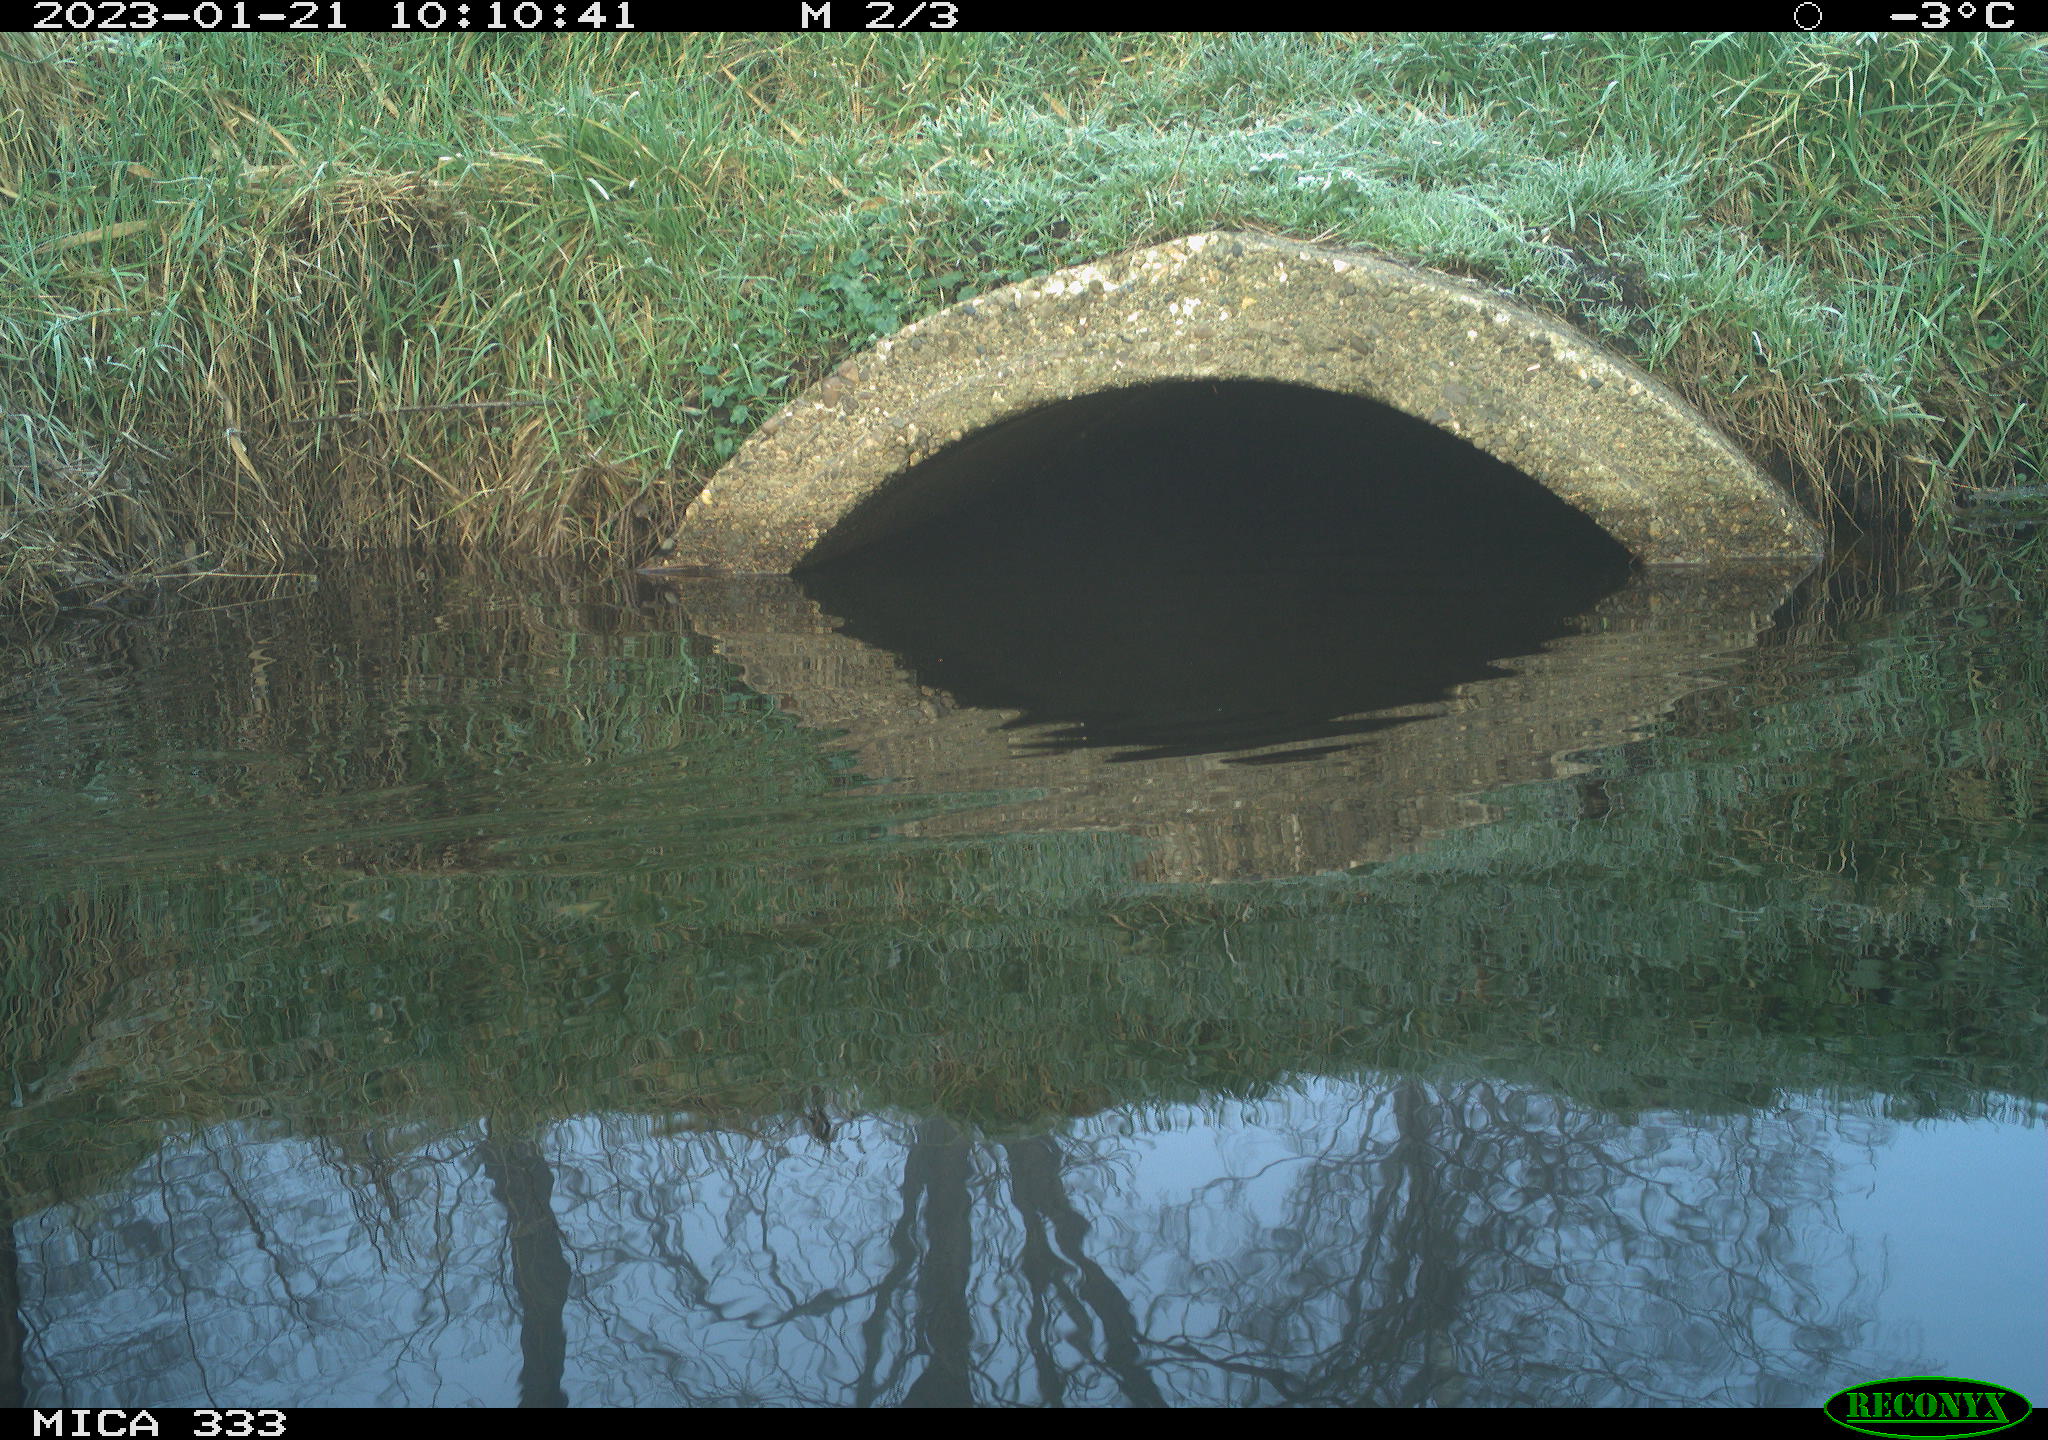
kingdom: Animalia
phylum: Chordata
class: Aves
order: Gruiformes
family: Rallidae
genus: Gallinula
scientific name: Gallinula chloropus
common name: Common moorhen
